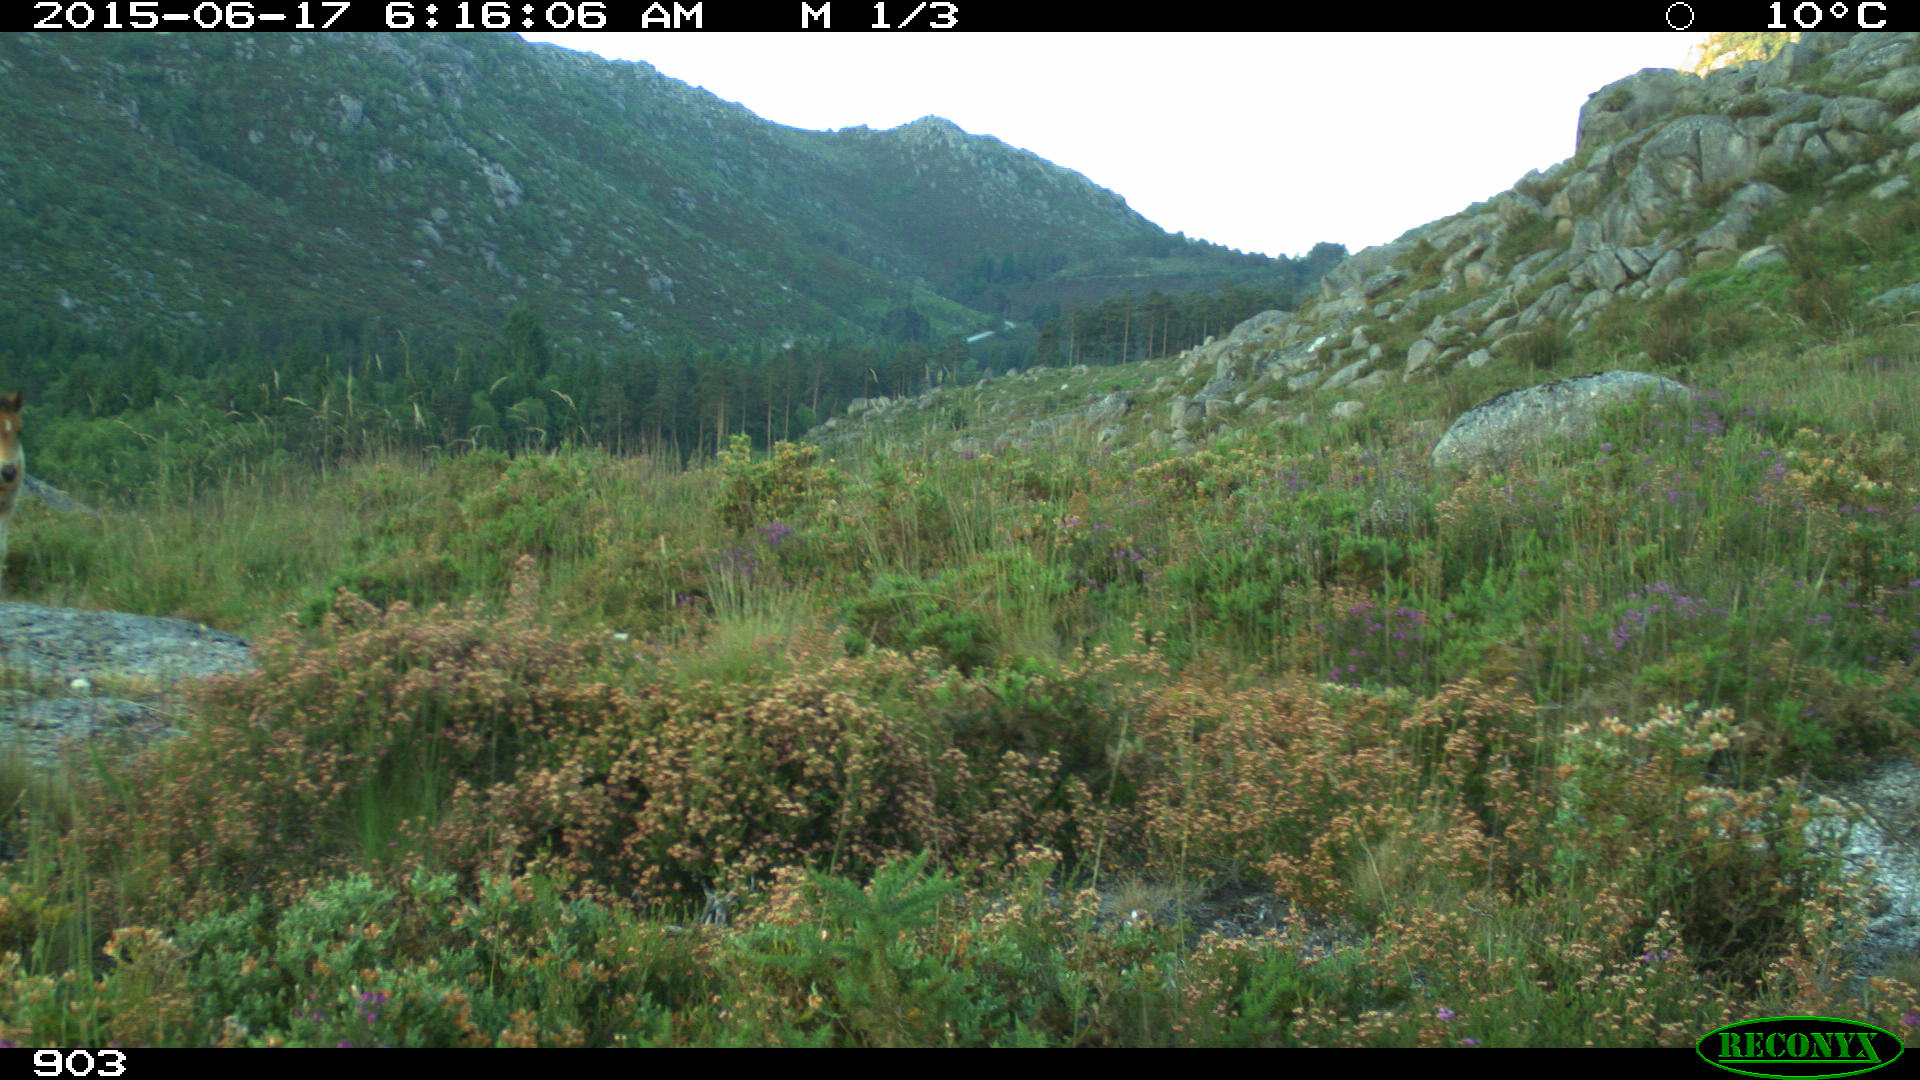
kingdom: Animalia
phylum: Chordata
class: Mammalia
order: Perissodactyla
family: Equidae
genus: Equus
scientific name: Equus caballus
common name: Horse
